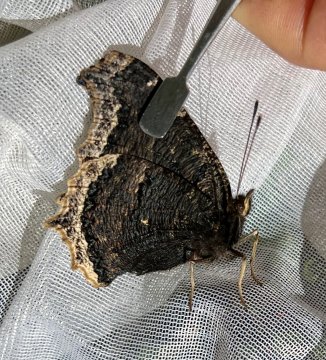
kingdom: Animalia
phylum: Arthropoda
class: Insecta
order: Lepidoptera
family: Nymphalidae
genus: Nymphalis
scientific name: Nymphalis antiopa
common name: Mourning Cloak
